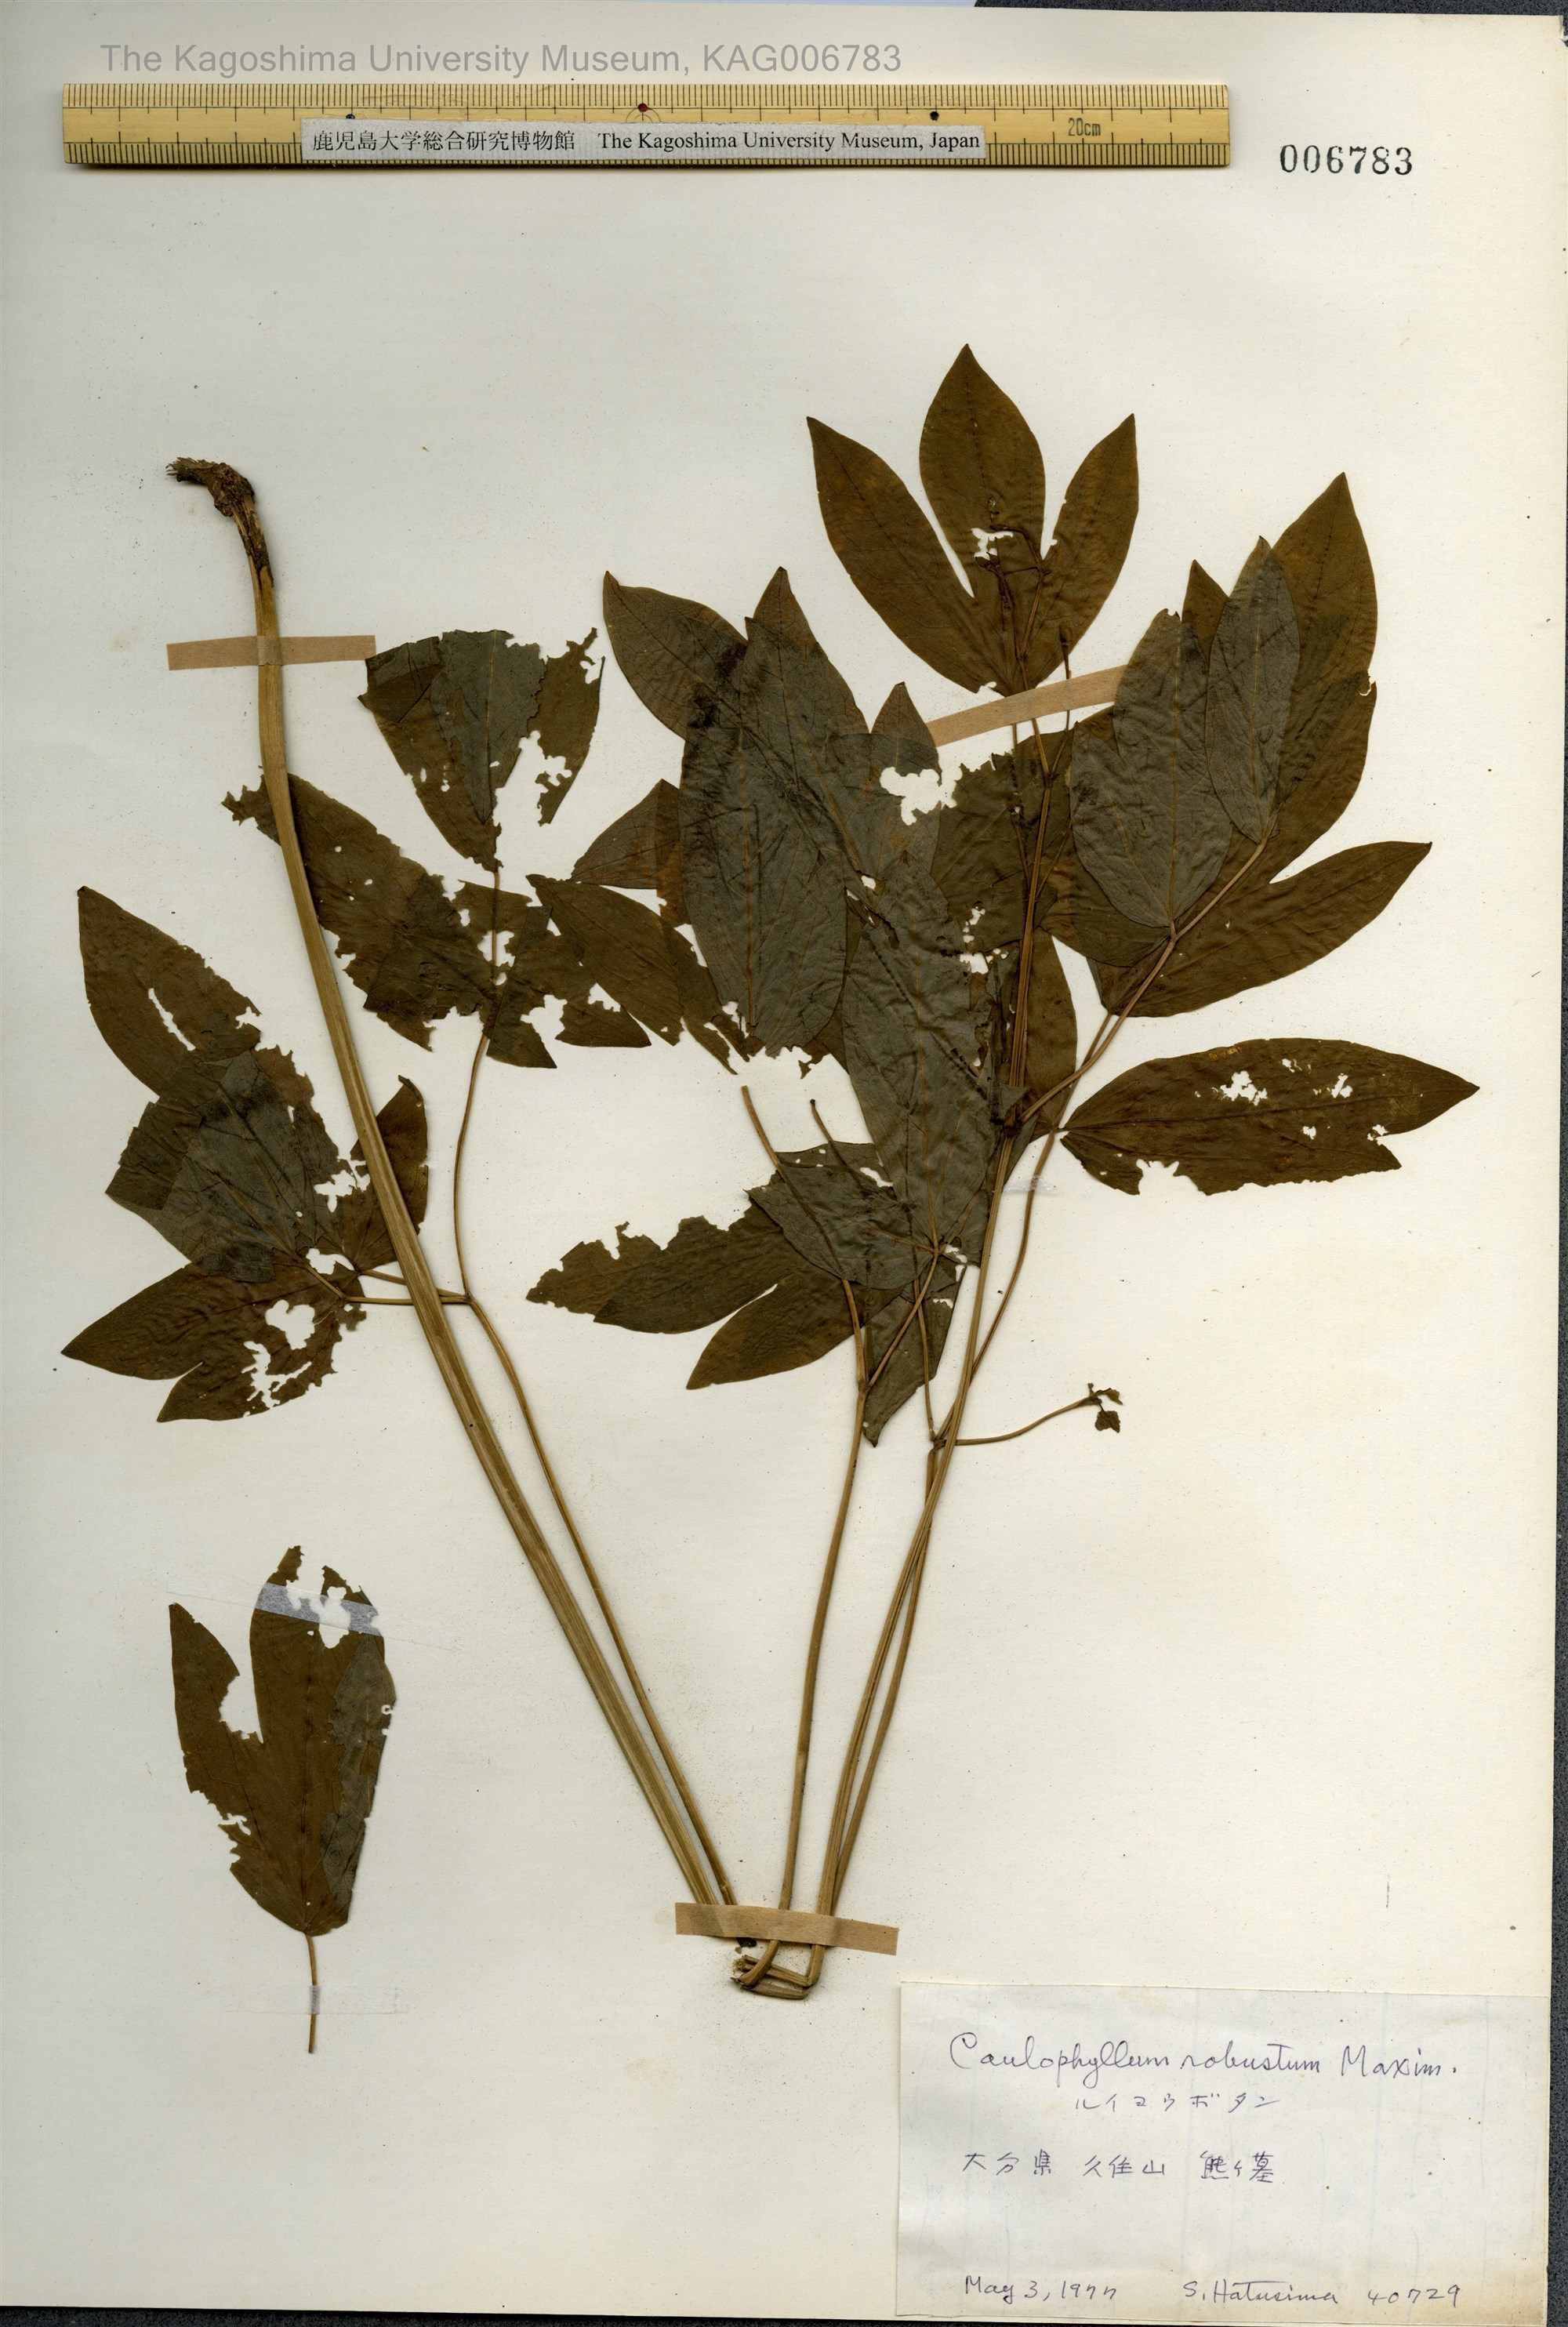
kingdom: Plantae
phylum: Tracheophyta
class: Magnoliopsida
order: Ranunculales
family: Berberidaceae
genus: Caulophyllum
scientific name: Caulophyllum robustum
